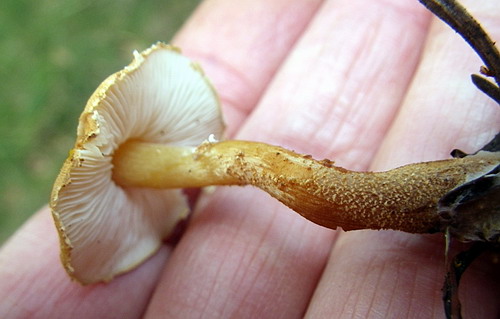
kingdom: Fungi
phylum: Basidiomycota
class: Agaricomycetes
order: Agaricales
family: Tricholomataceae
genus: Cystoderma
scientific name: Cystoderma amianthinum
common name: okkergul grynhat
